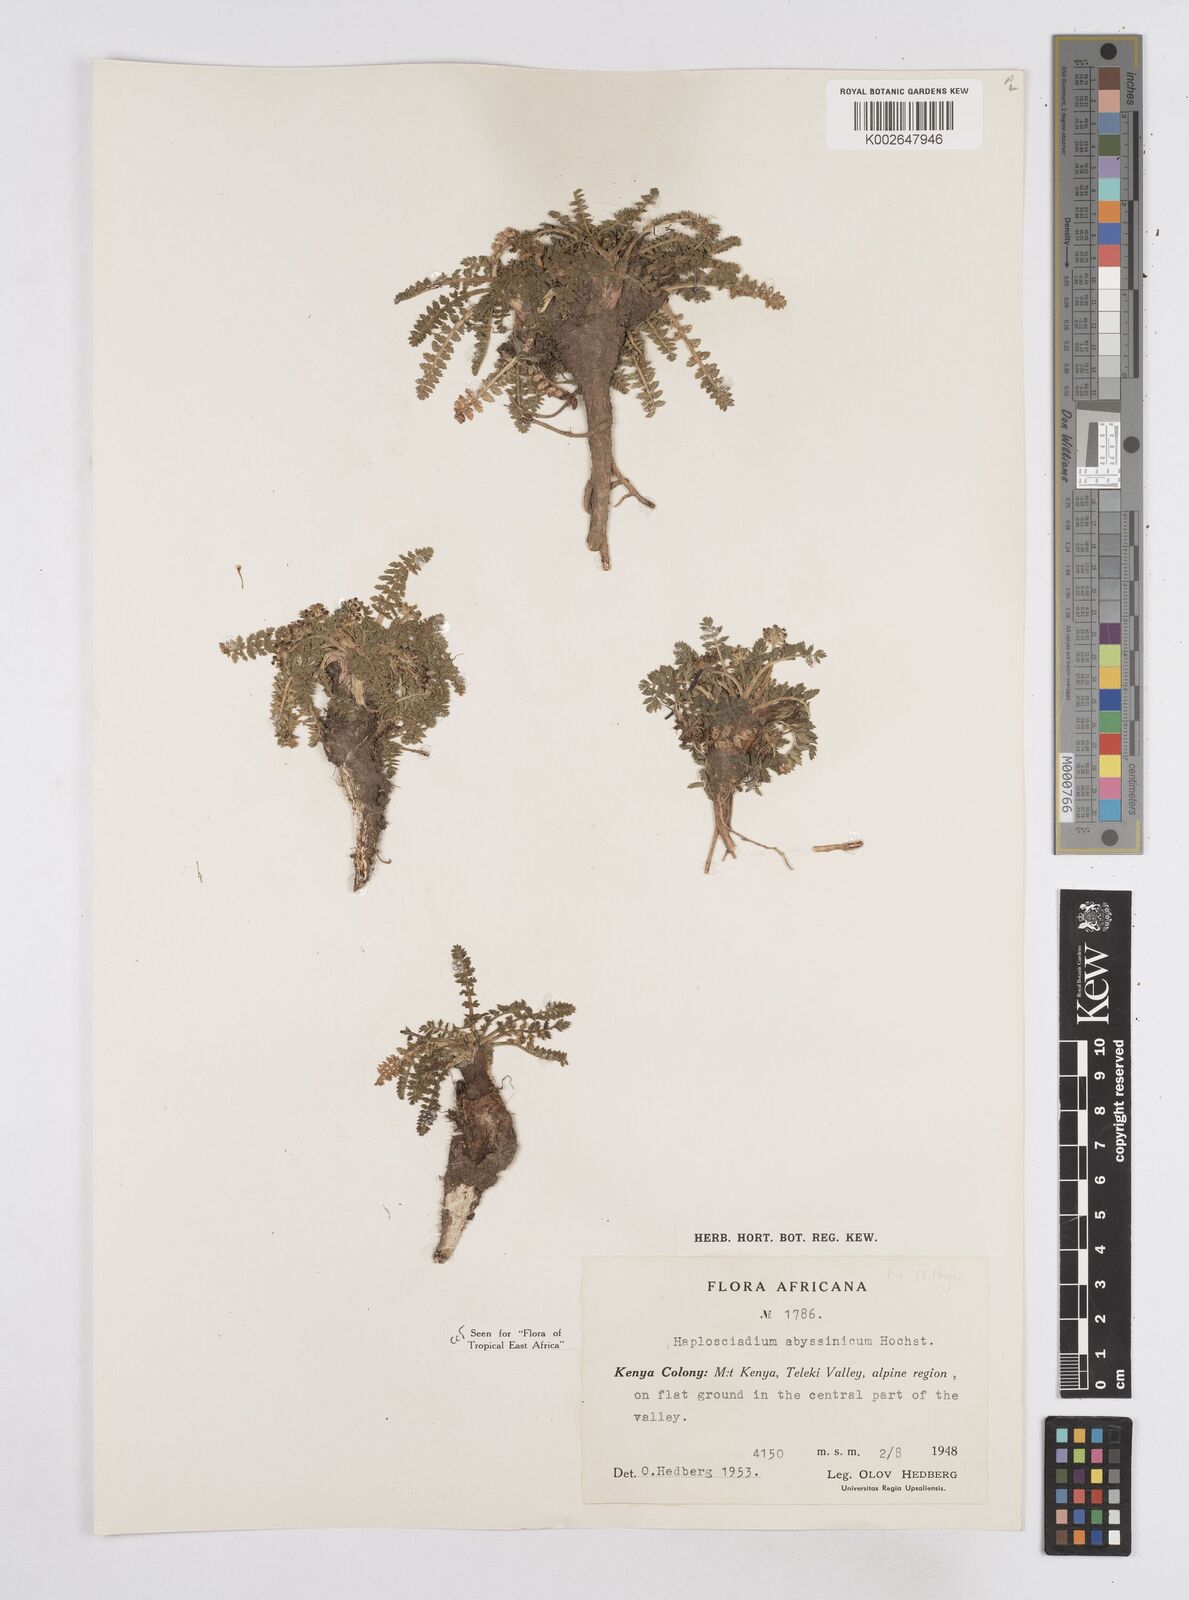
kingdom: Plantae
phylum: Tracheophyta
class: Magnoliopsida
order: Apiales
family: Apiaceae
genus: Haplosciadium
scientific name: Haplosciadium abyssinicum
